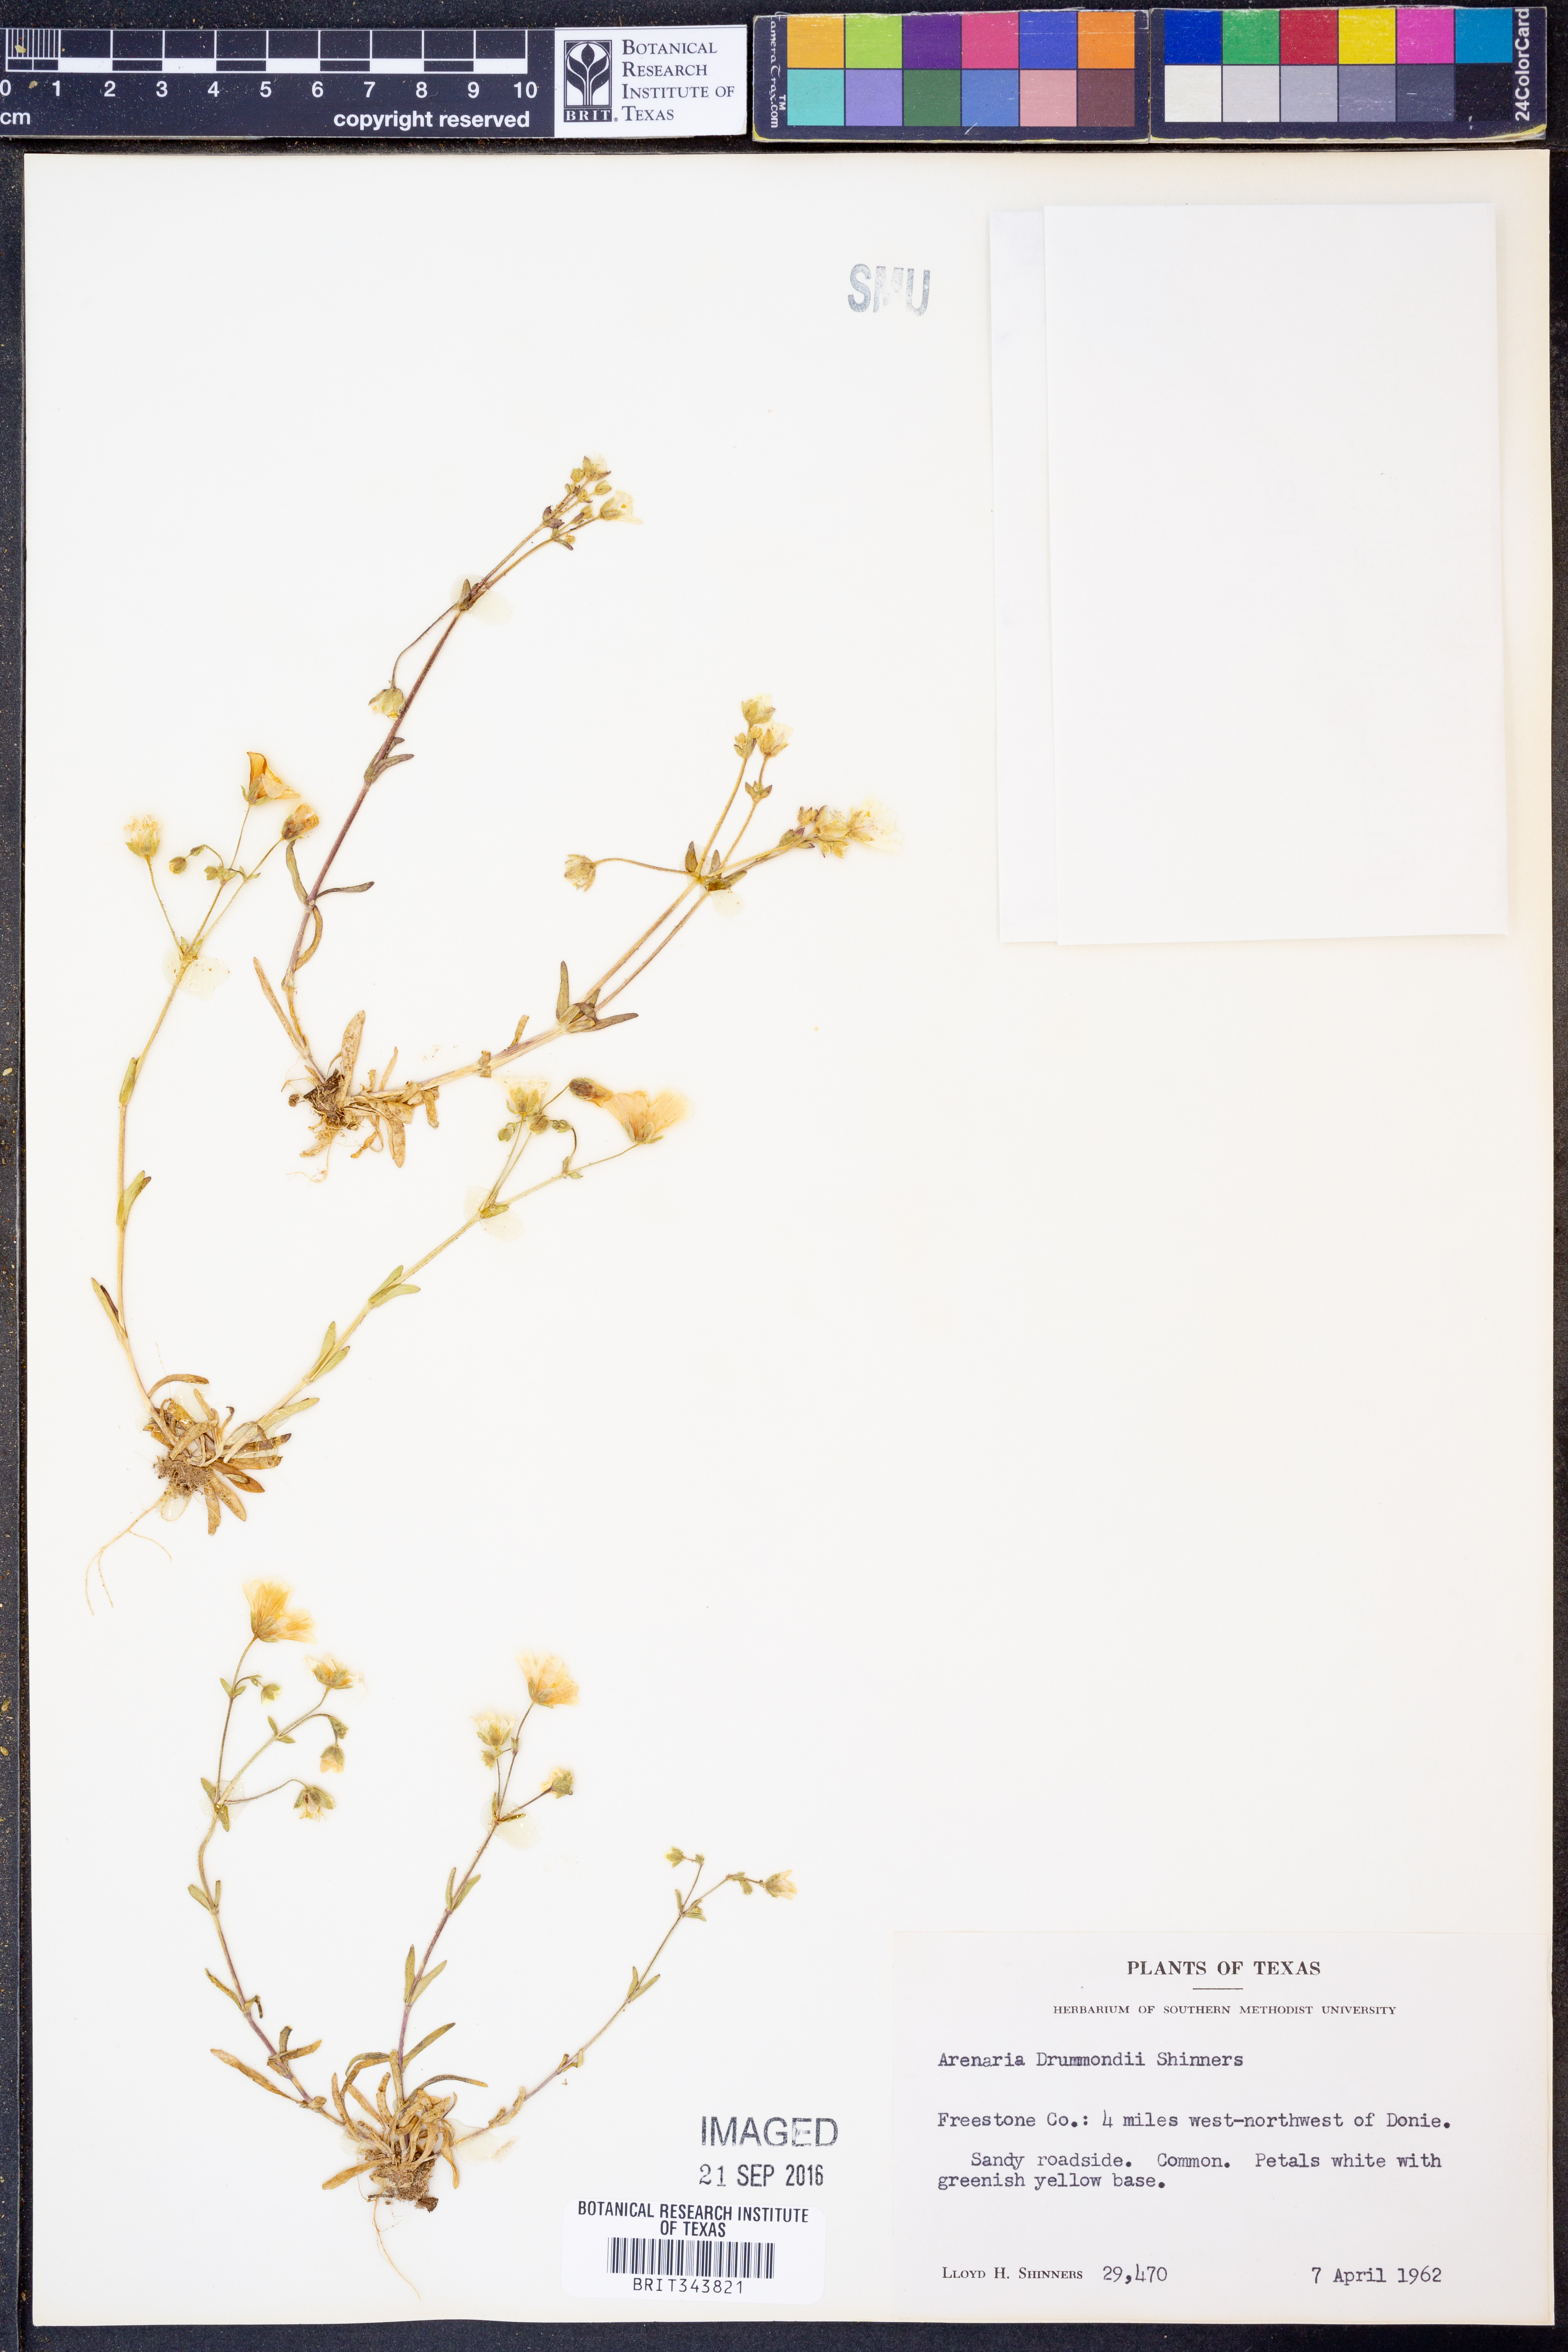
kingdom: Plantae
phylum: Tracheophyta
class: Magnoliopsida
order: Caryophyllales
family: Caryophyllaceae
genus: Geocarpon
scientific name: Geocarpon nuttallii
